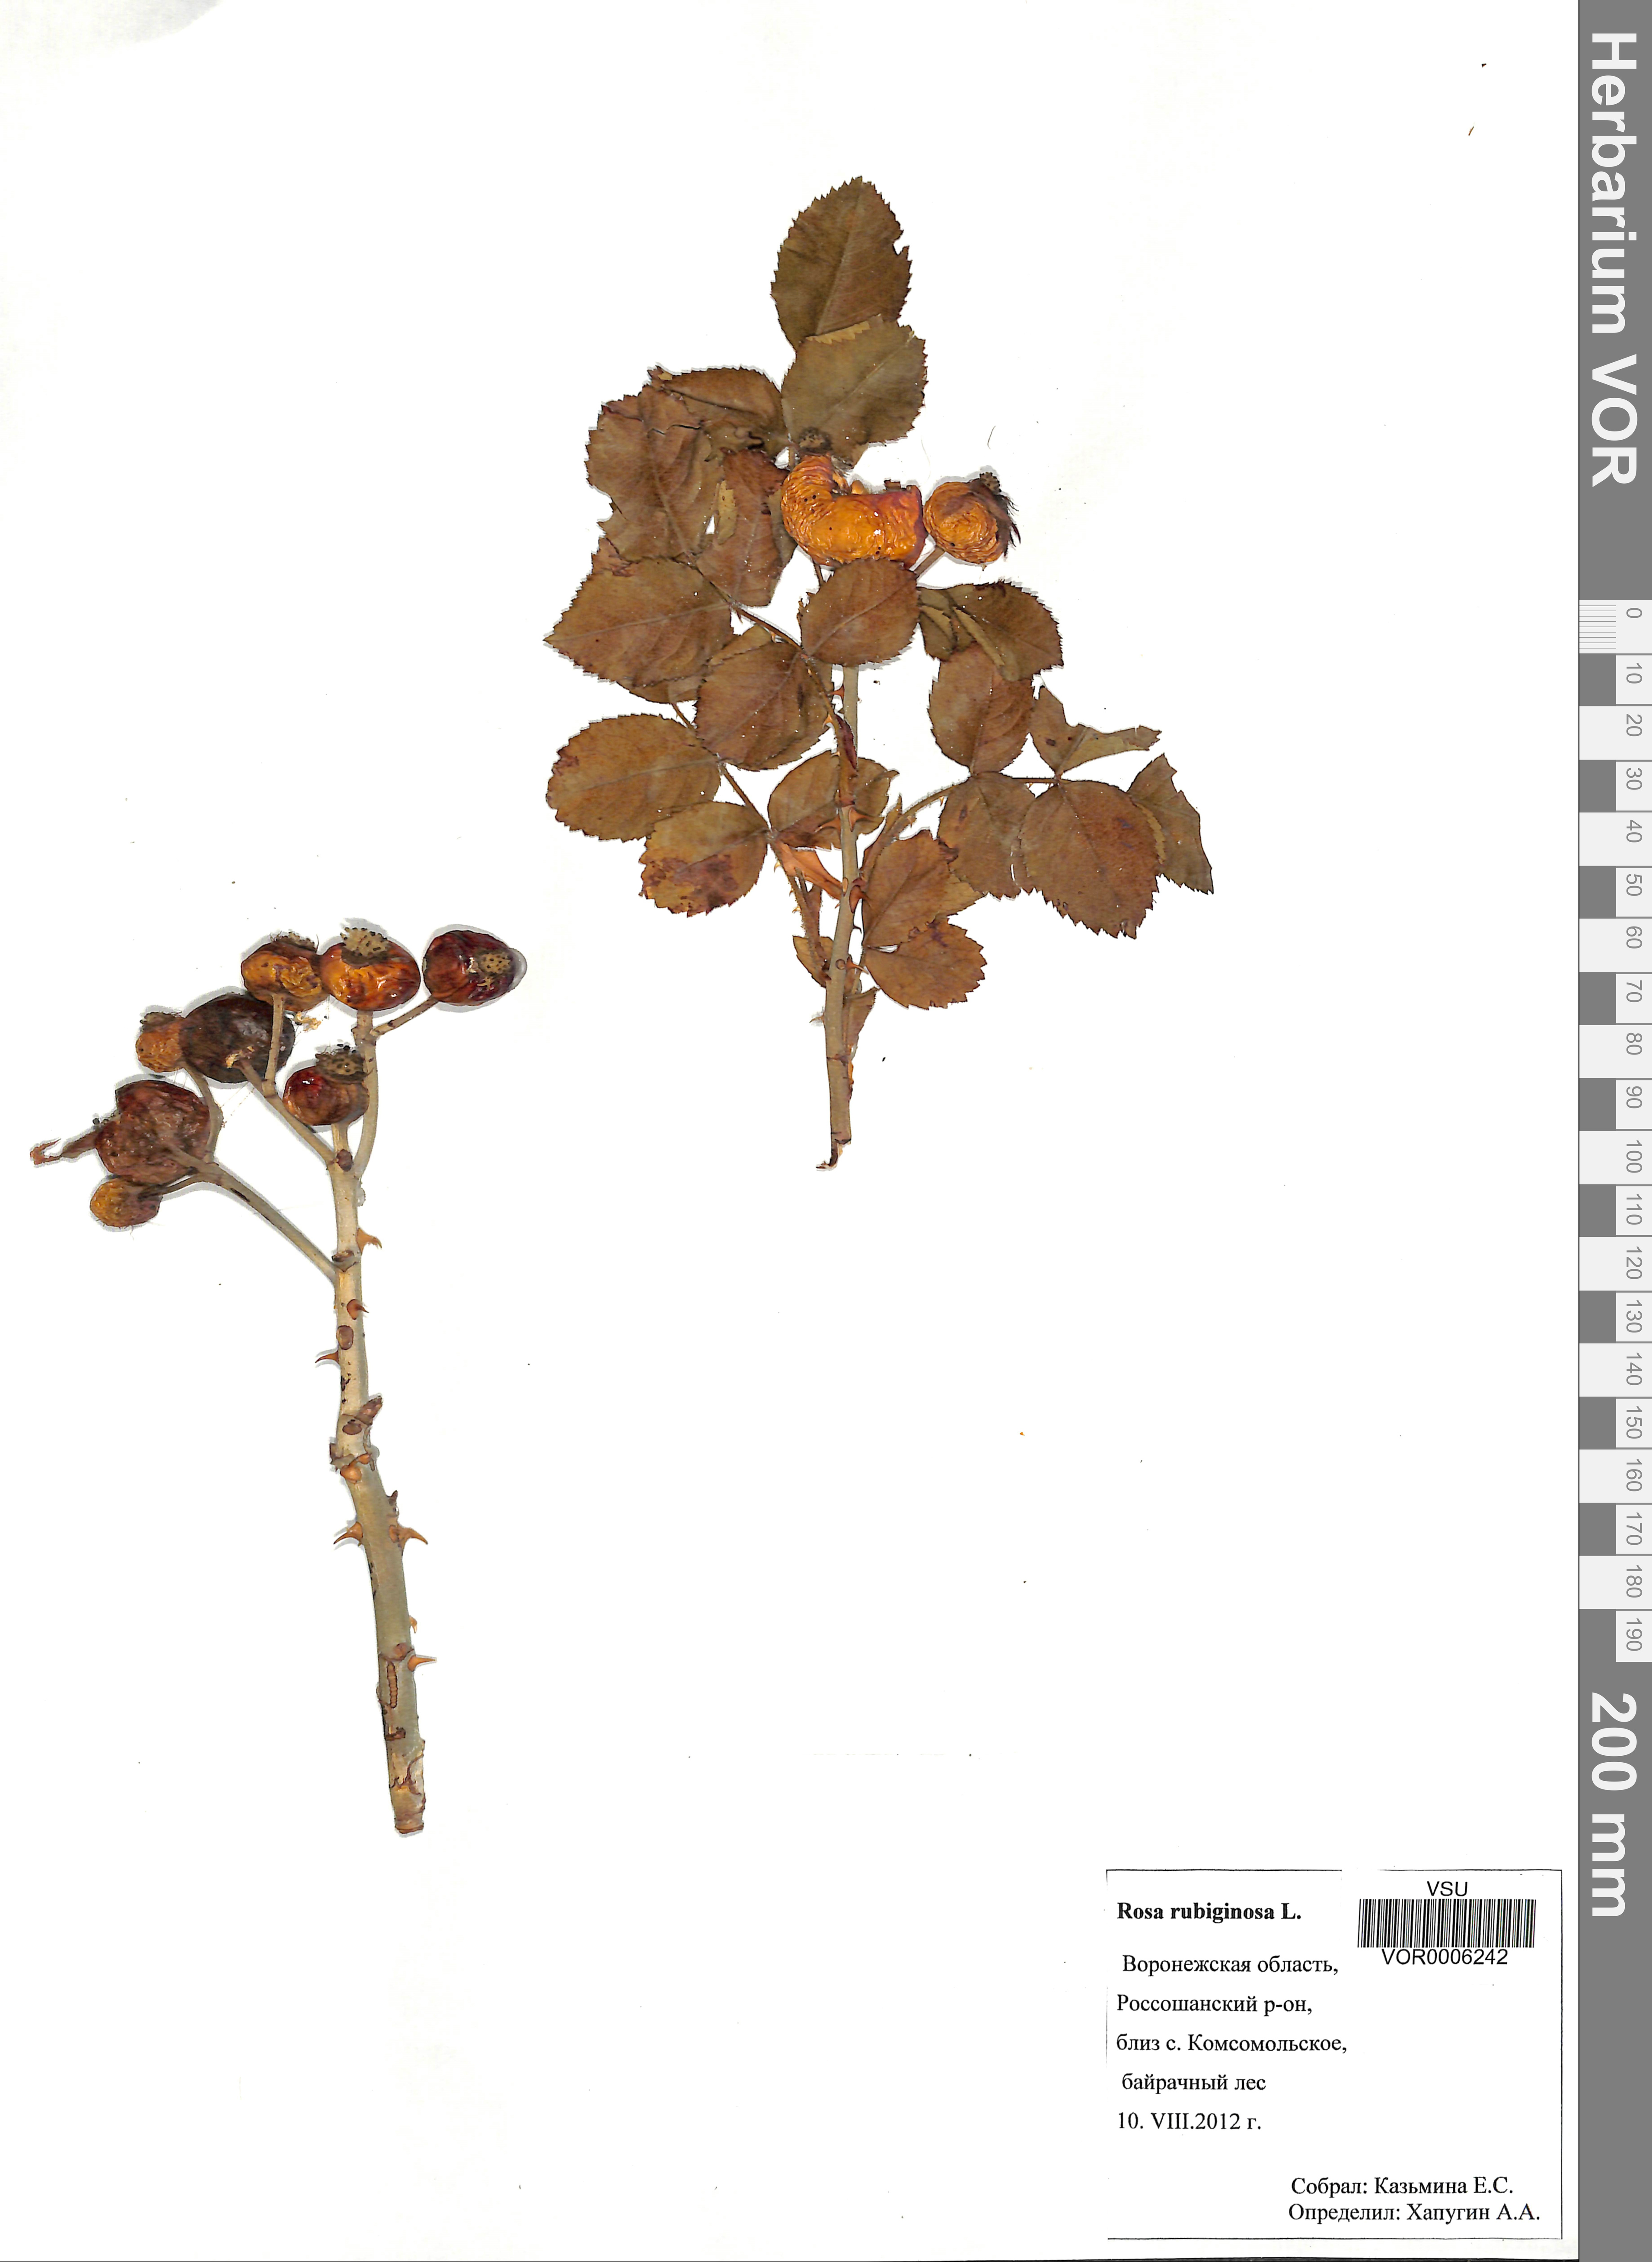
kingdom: Plantae
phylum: Tracheophyta
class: Magnoliopsida
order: Rosales
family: Rosaceae
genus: Rosa
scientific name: Rosa rubiginosa
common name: Sweet-briar
